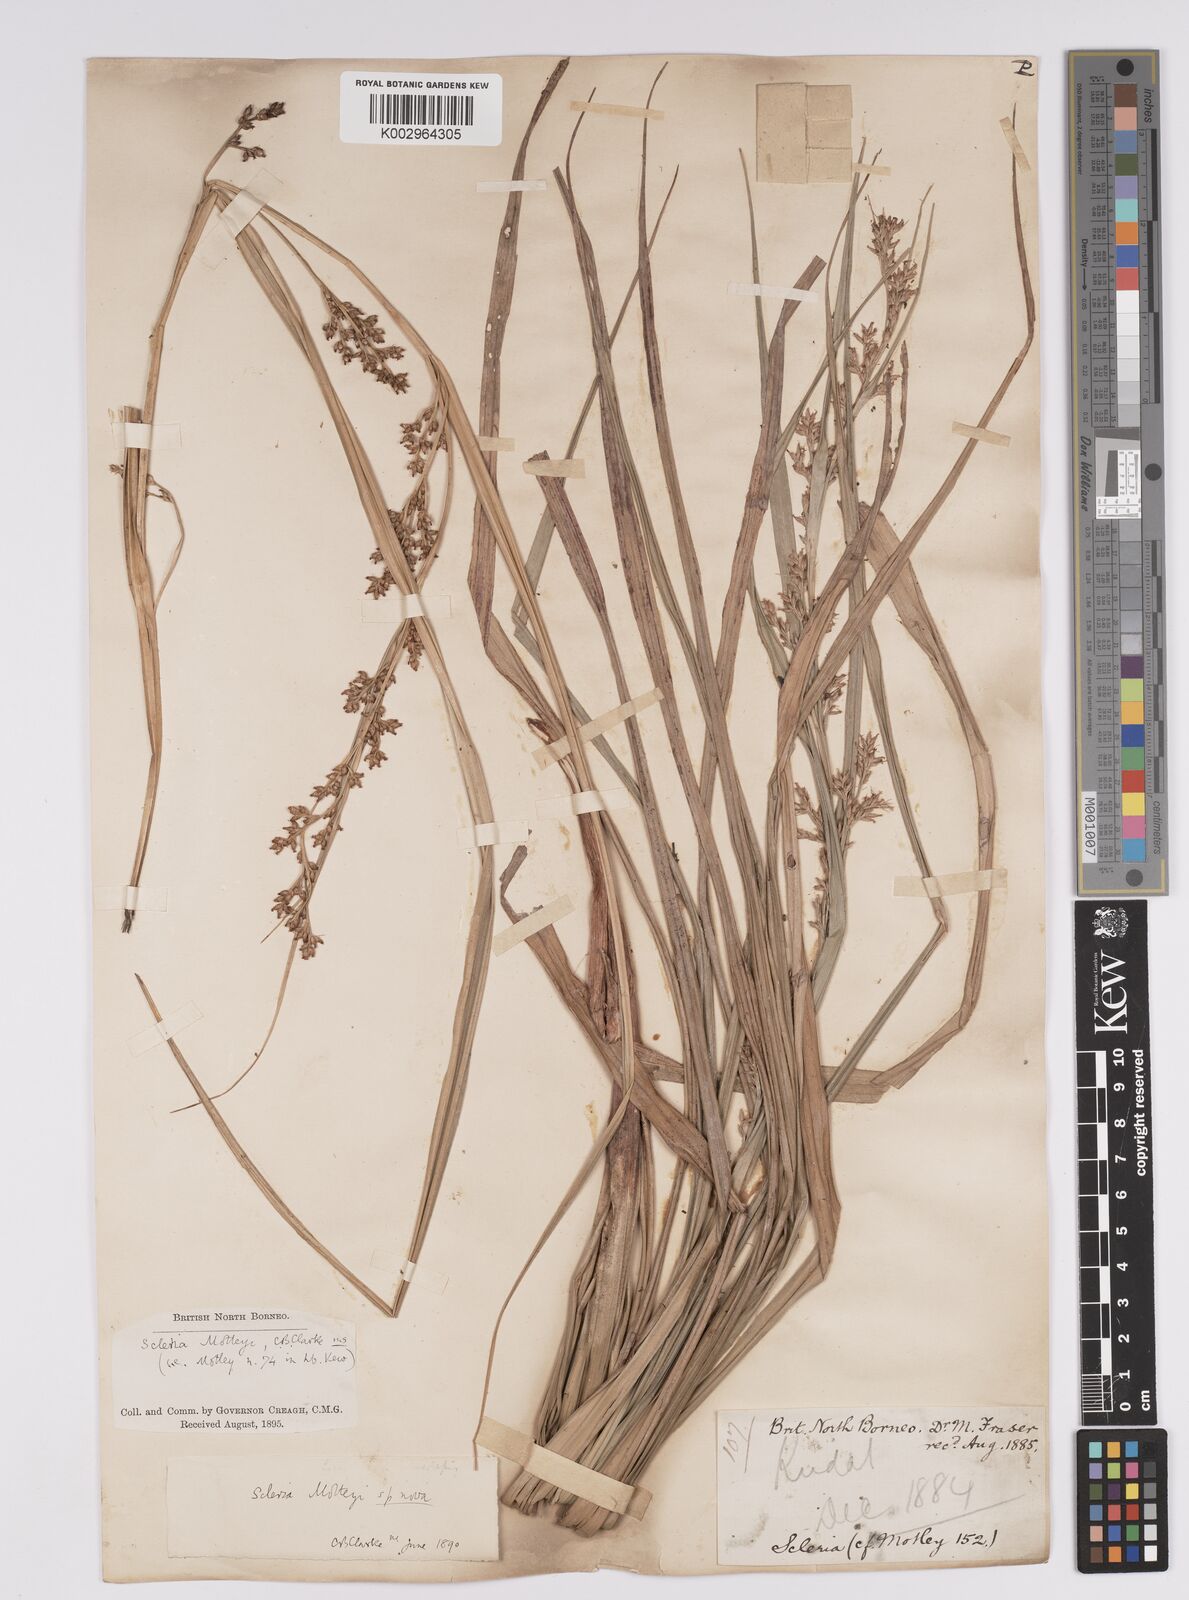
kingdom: Plantae
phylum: Tracheophyta
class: Liliopsida
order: Poales
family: Cyperaceae
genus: Scleria
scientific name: Scleria motleyi
